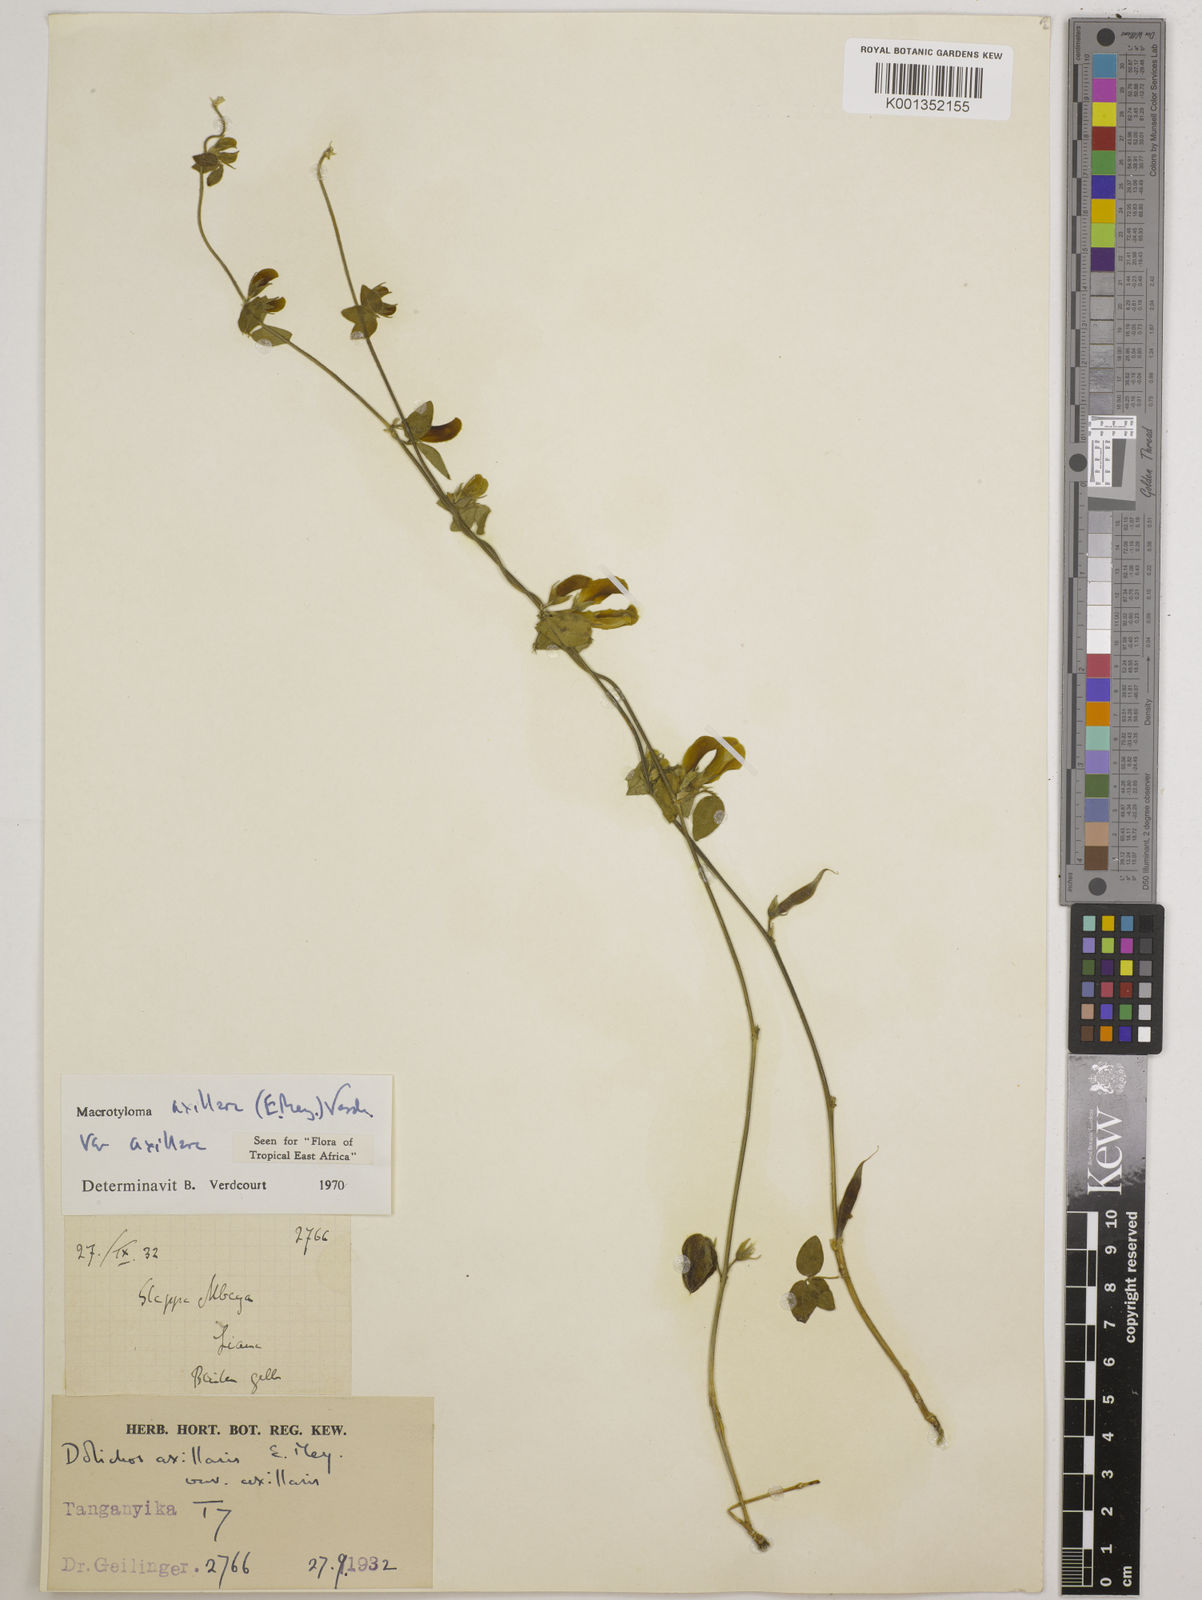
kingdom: Plantae
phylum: Tracheophyta
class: Magnoliopsida
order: Fabales
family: Fabaceae
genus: Macrotyloma
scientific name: Macrotyloma axillare
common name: Perennial horsegram
